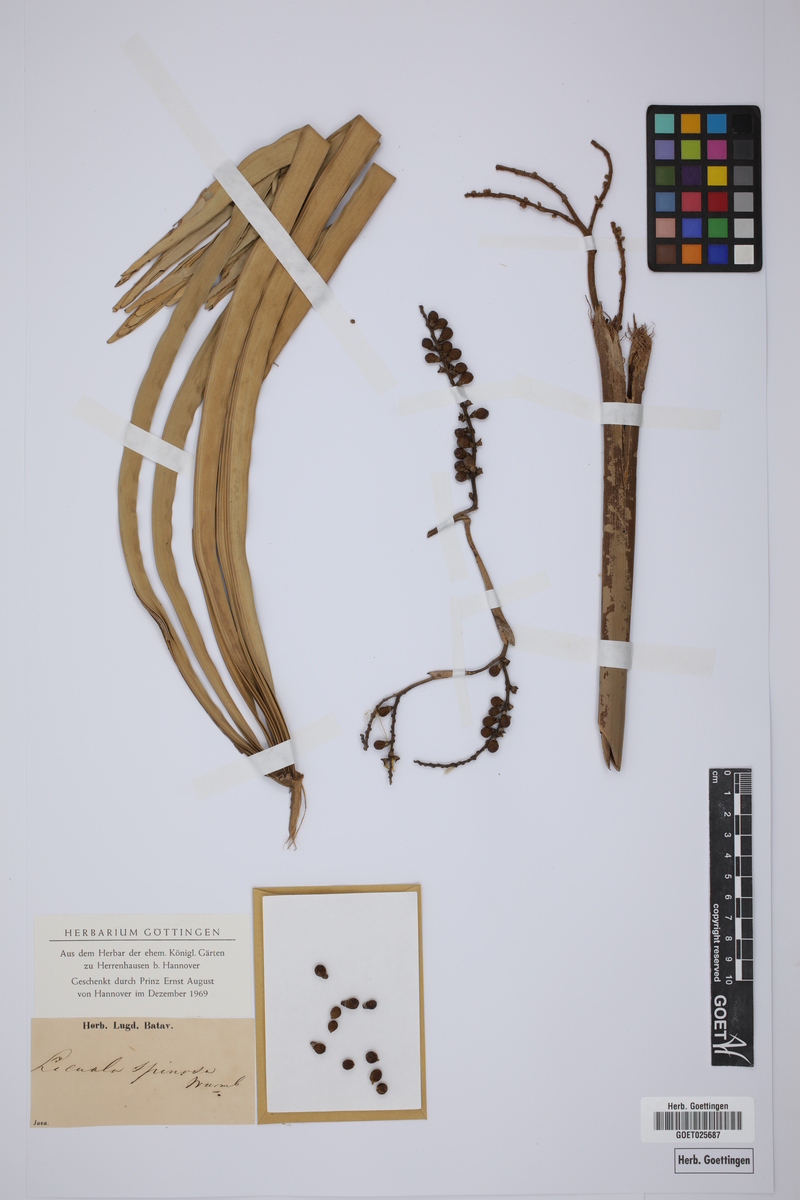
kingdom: Plantae
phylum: Tracheophyta
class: Liliopsida
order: Arecales
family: Arecaceae
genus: Licuala
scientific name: Licuala spinosa
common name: Mangrove fan palm
